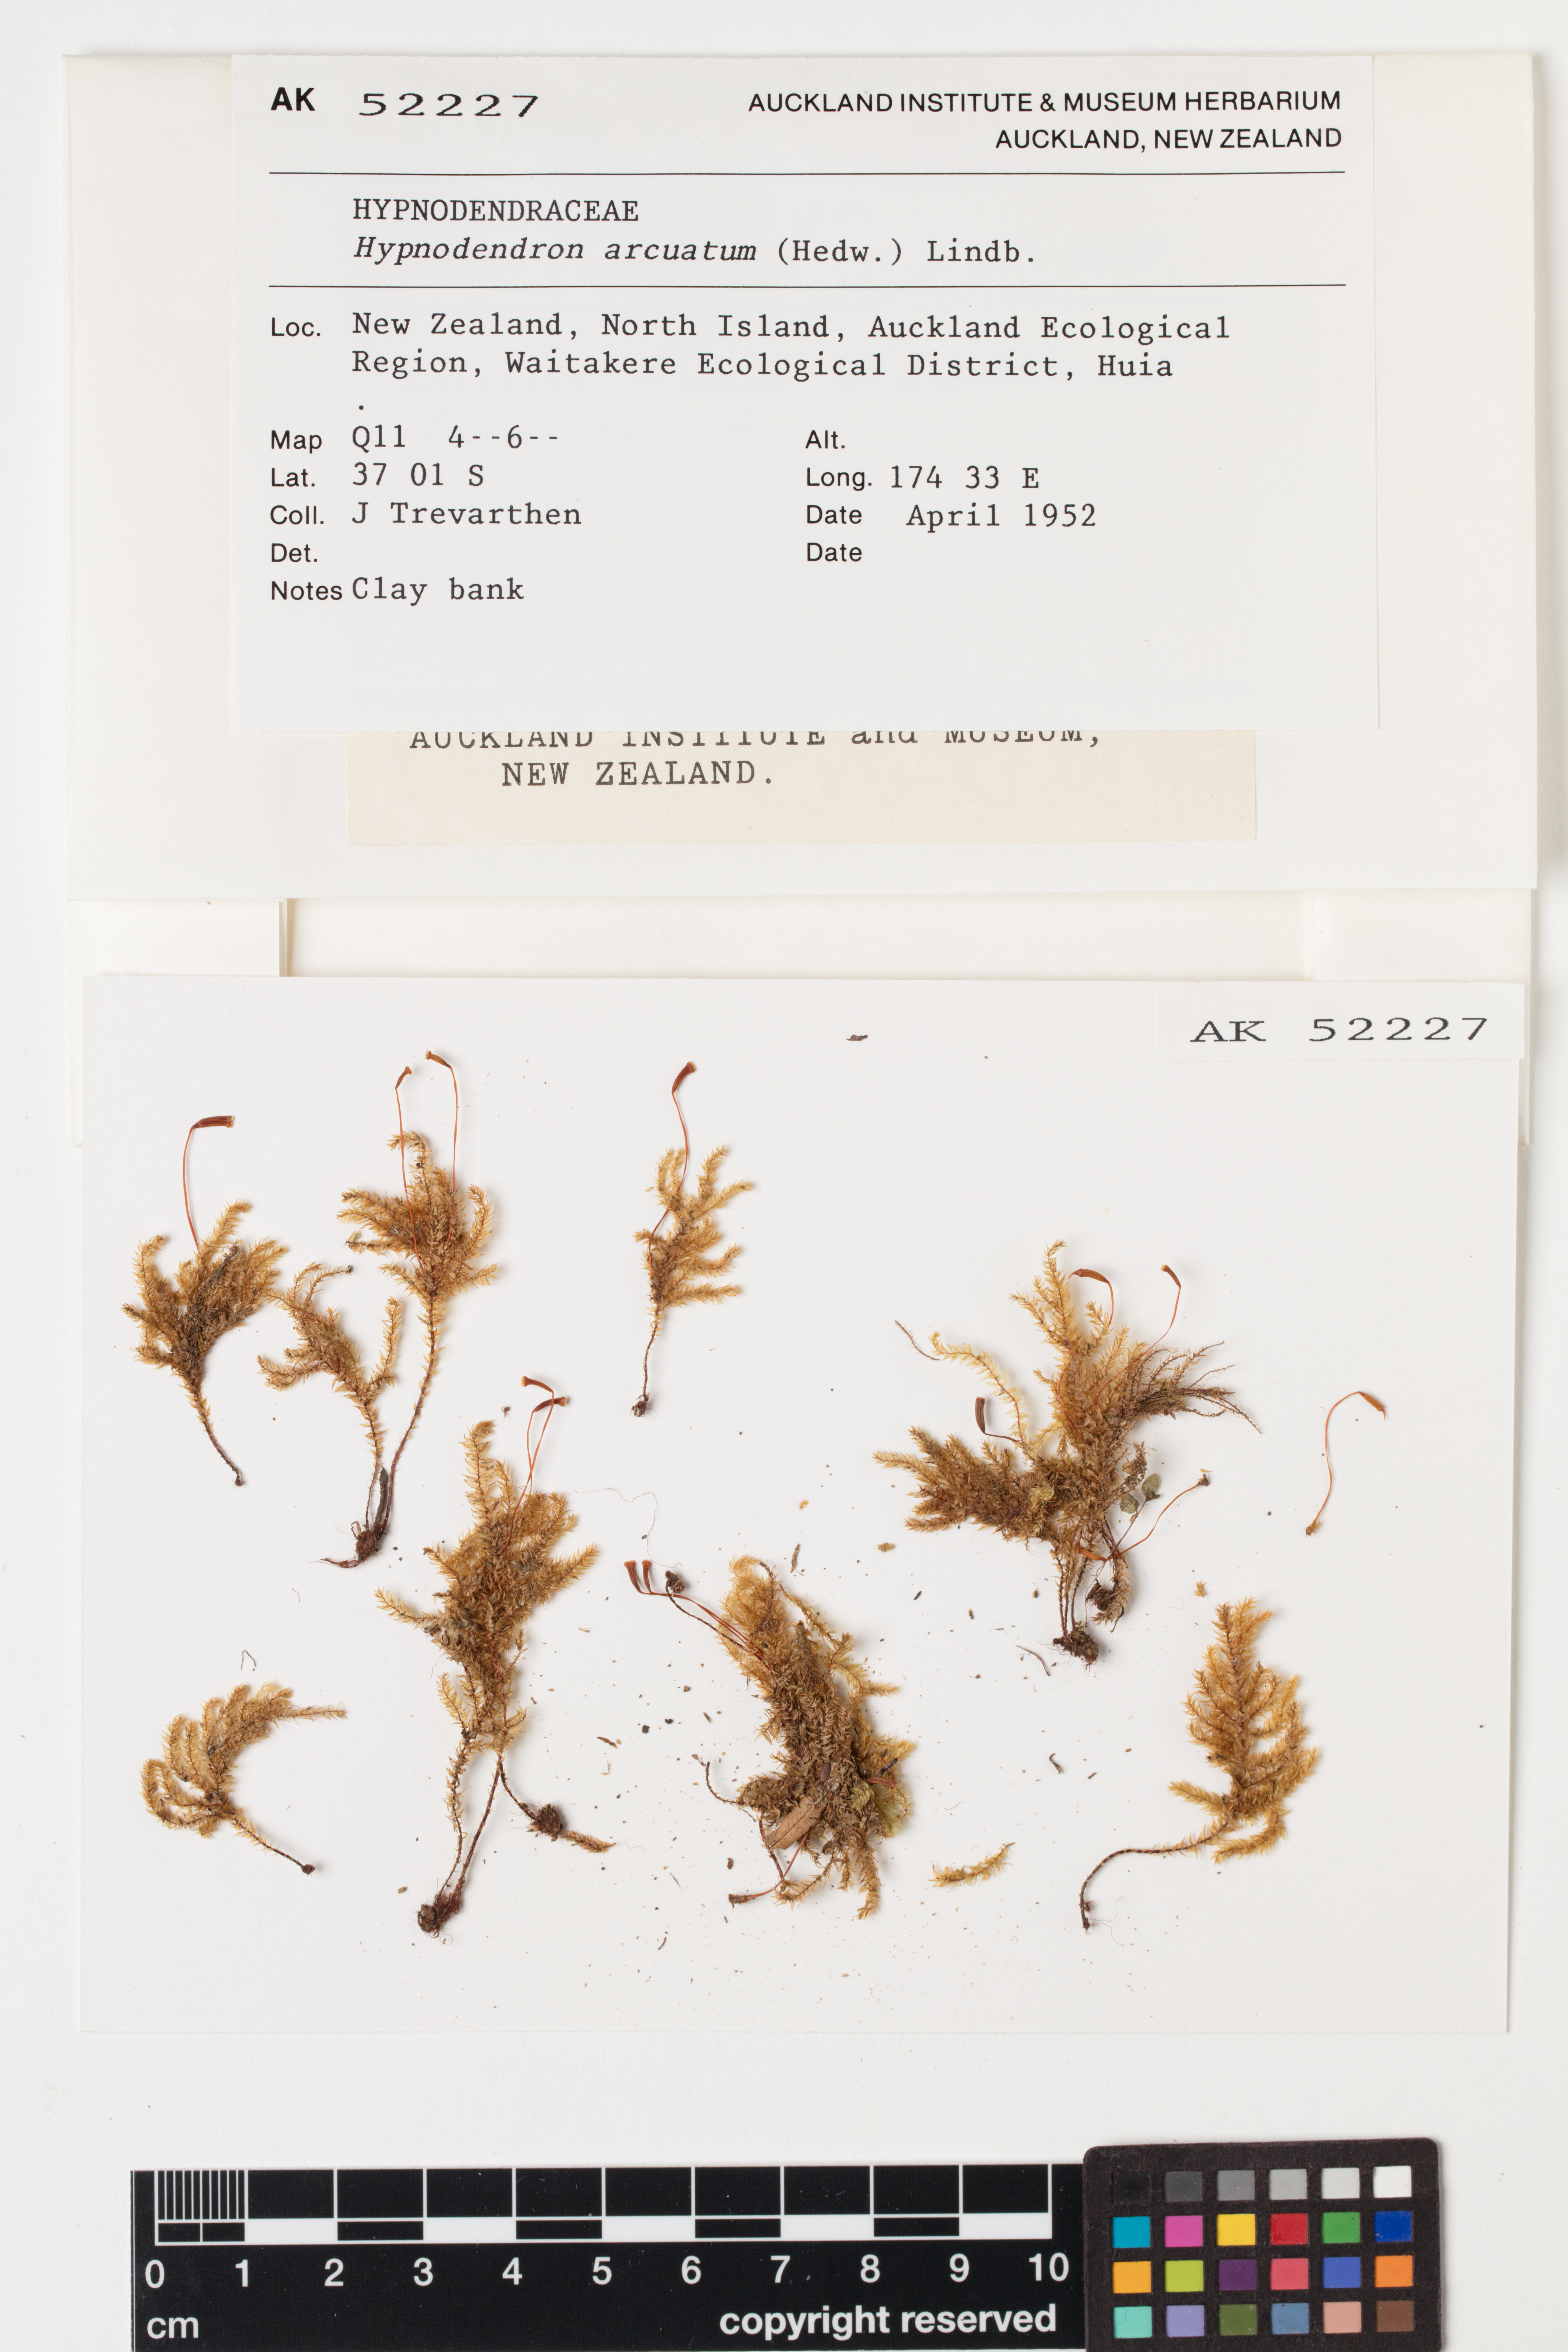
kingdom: Plantae
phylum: Bryophyta
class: Bryopsida
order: Hypnodendrales
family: Spiridentaceae
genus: Hypnodendron
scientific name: Hypnodendron arcuatum
